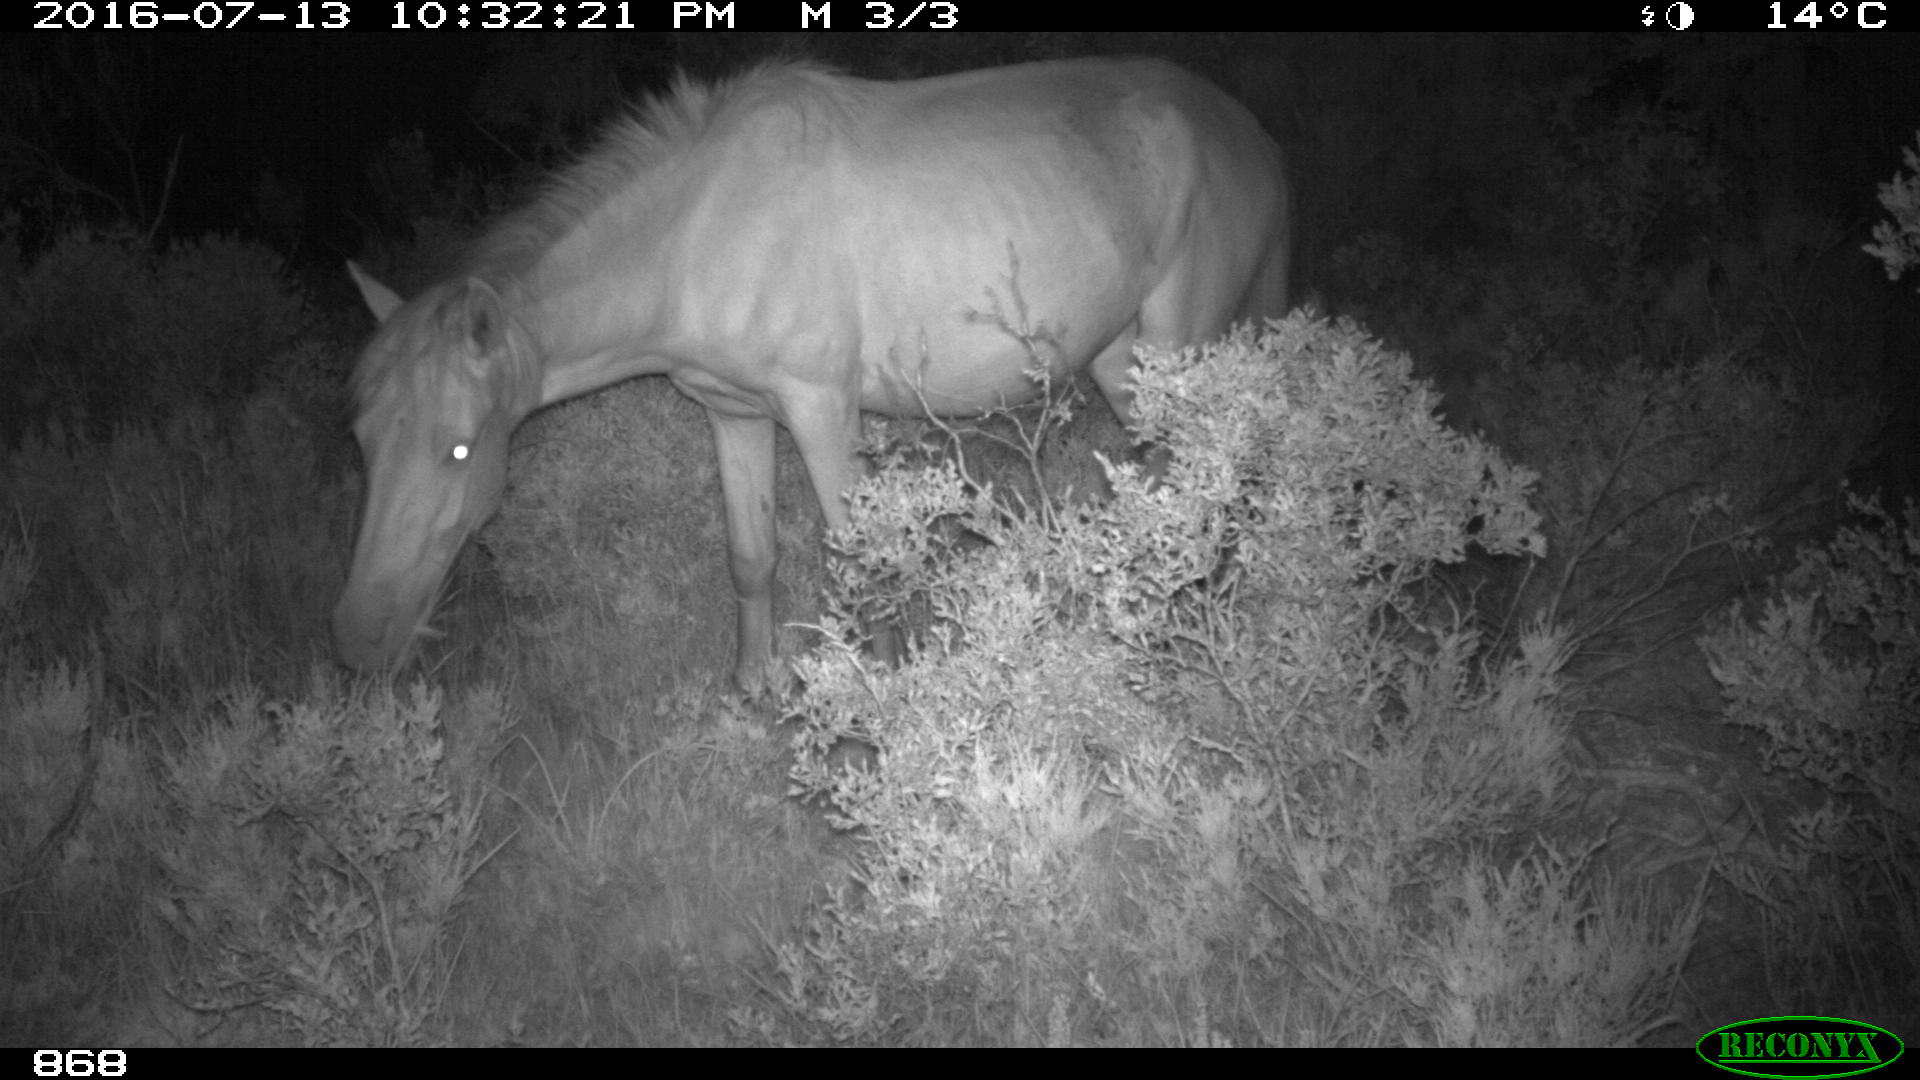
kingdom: Animalia
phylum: Chordata
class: Mammalia
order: Perissodactyla
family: Equidae
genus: Equus
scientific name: Equus caballus
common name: Horse
